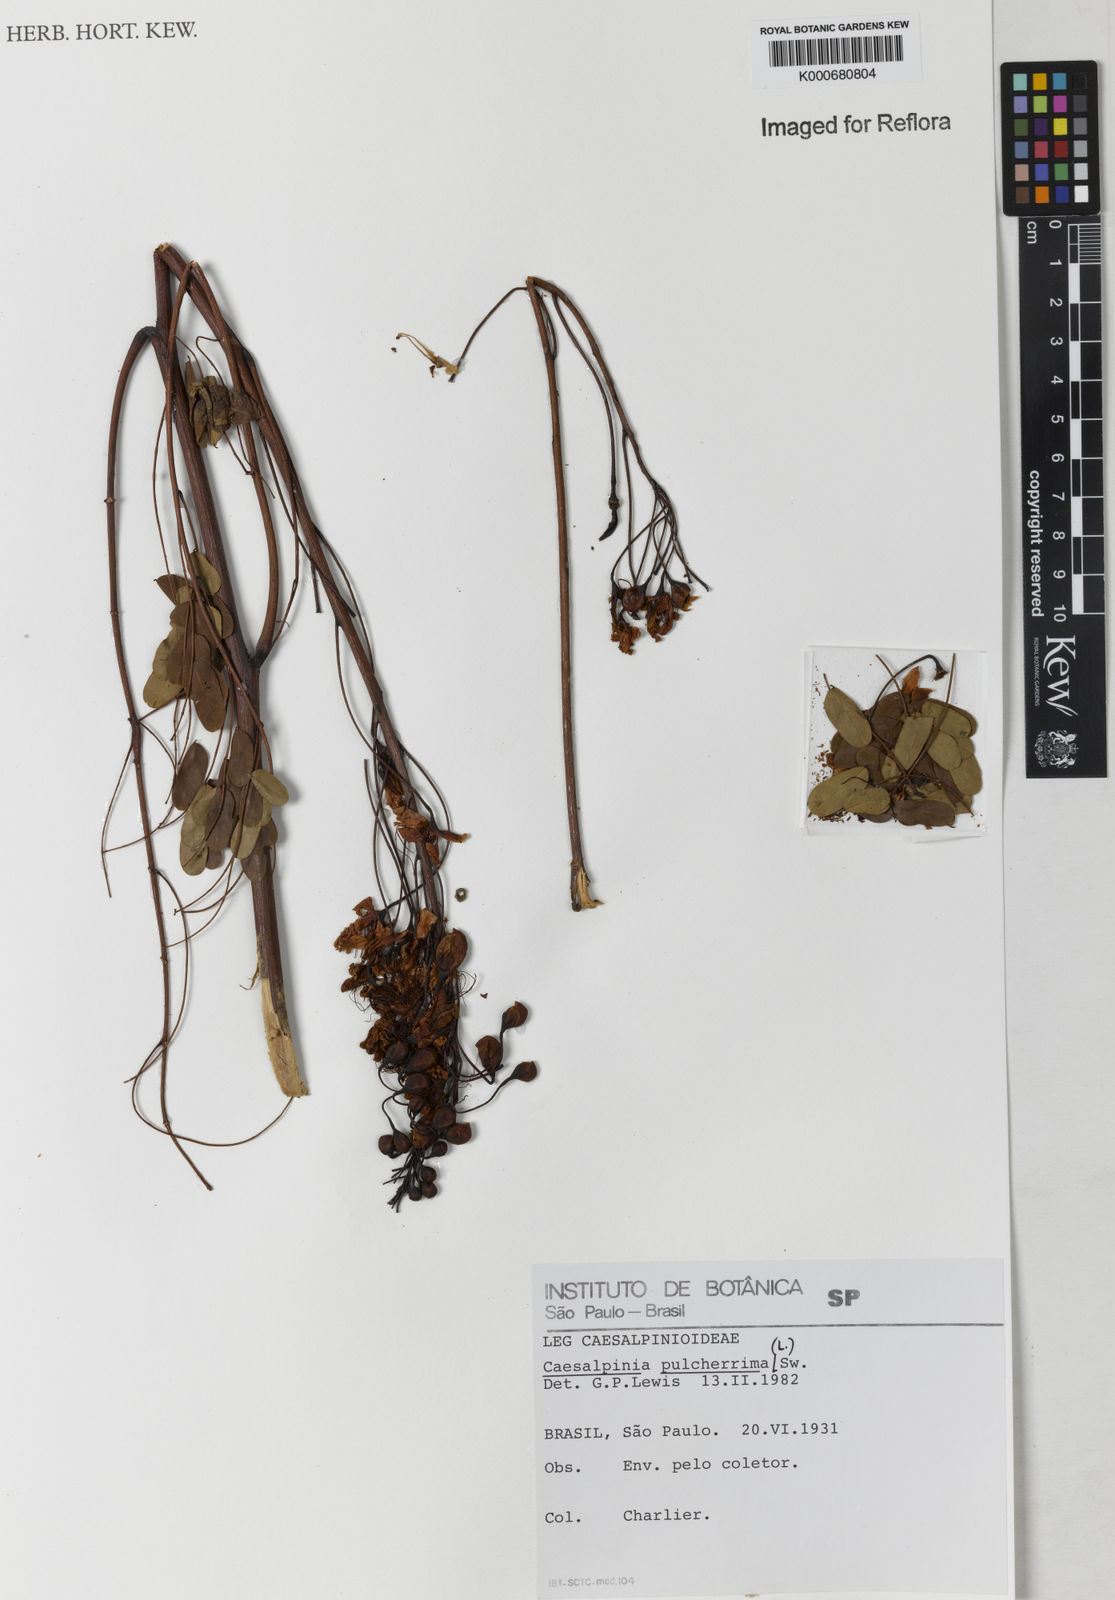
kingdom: Plantae
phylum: Tracheophyta
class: Magnoliopsida
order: Fabales
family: Fabaceae
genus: Caesalpinia
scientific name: Caesalpinia pulcherrima
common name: Pride-of-barbados
